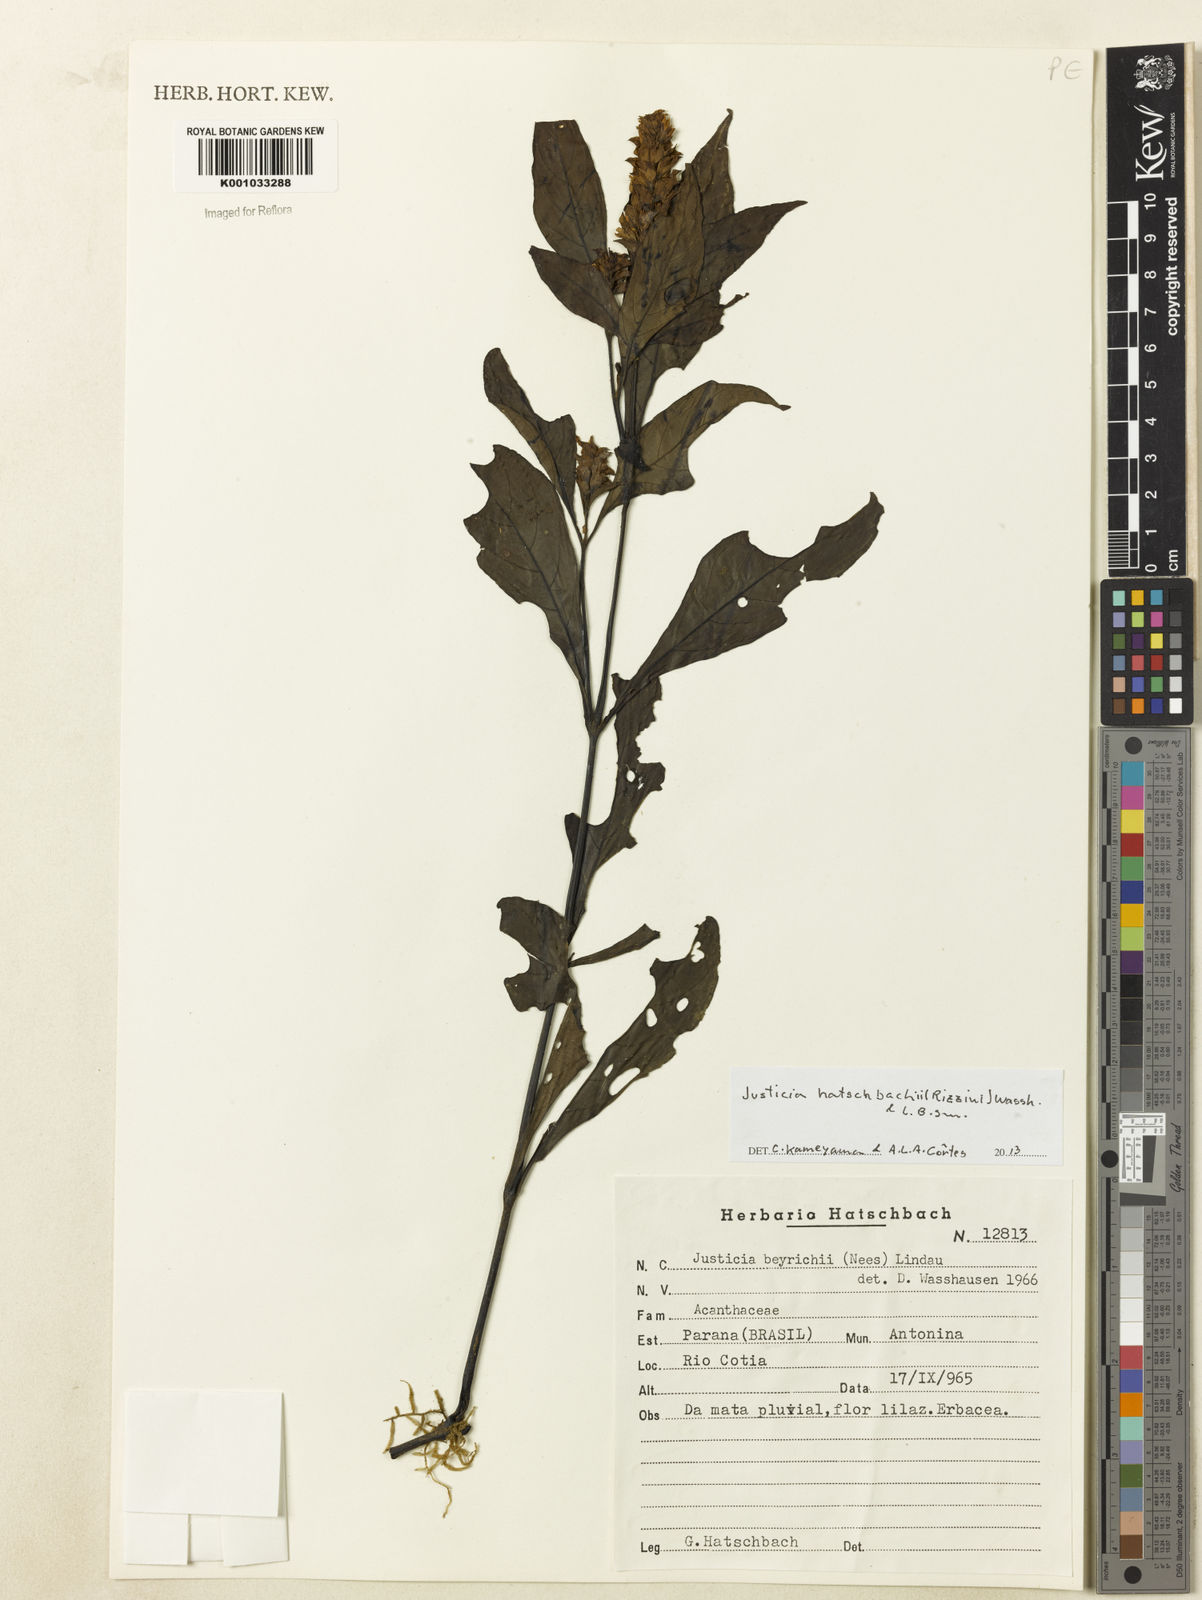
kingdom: Plantae
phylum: Tracheophyta
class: Magnoliopsida
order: Lamiales
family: Acanthaceae
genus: Justicia
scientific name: Justicia hatschbachii
